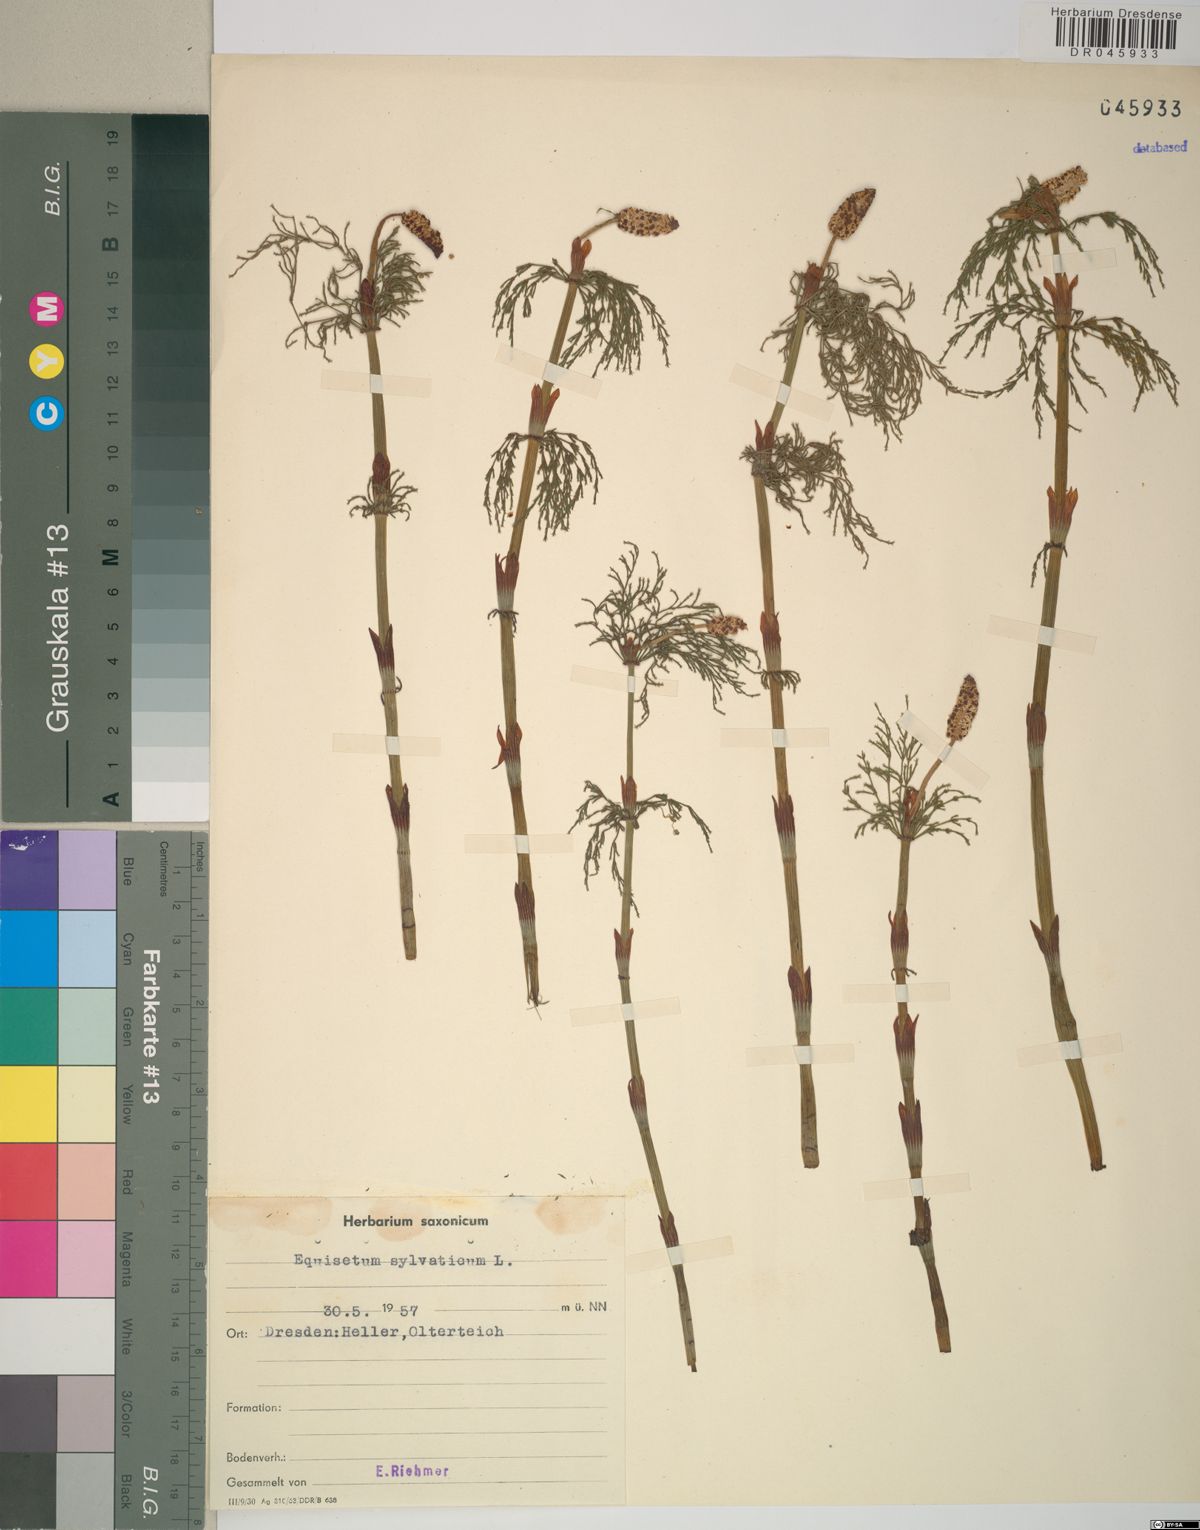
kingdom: Plantae
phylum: Tracheophyta
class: Polypodiopsida
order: Equisetales
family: Equisetaceae
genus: Equisetum
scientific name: Equisetum sylvaticum
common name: Wood horsetail
